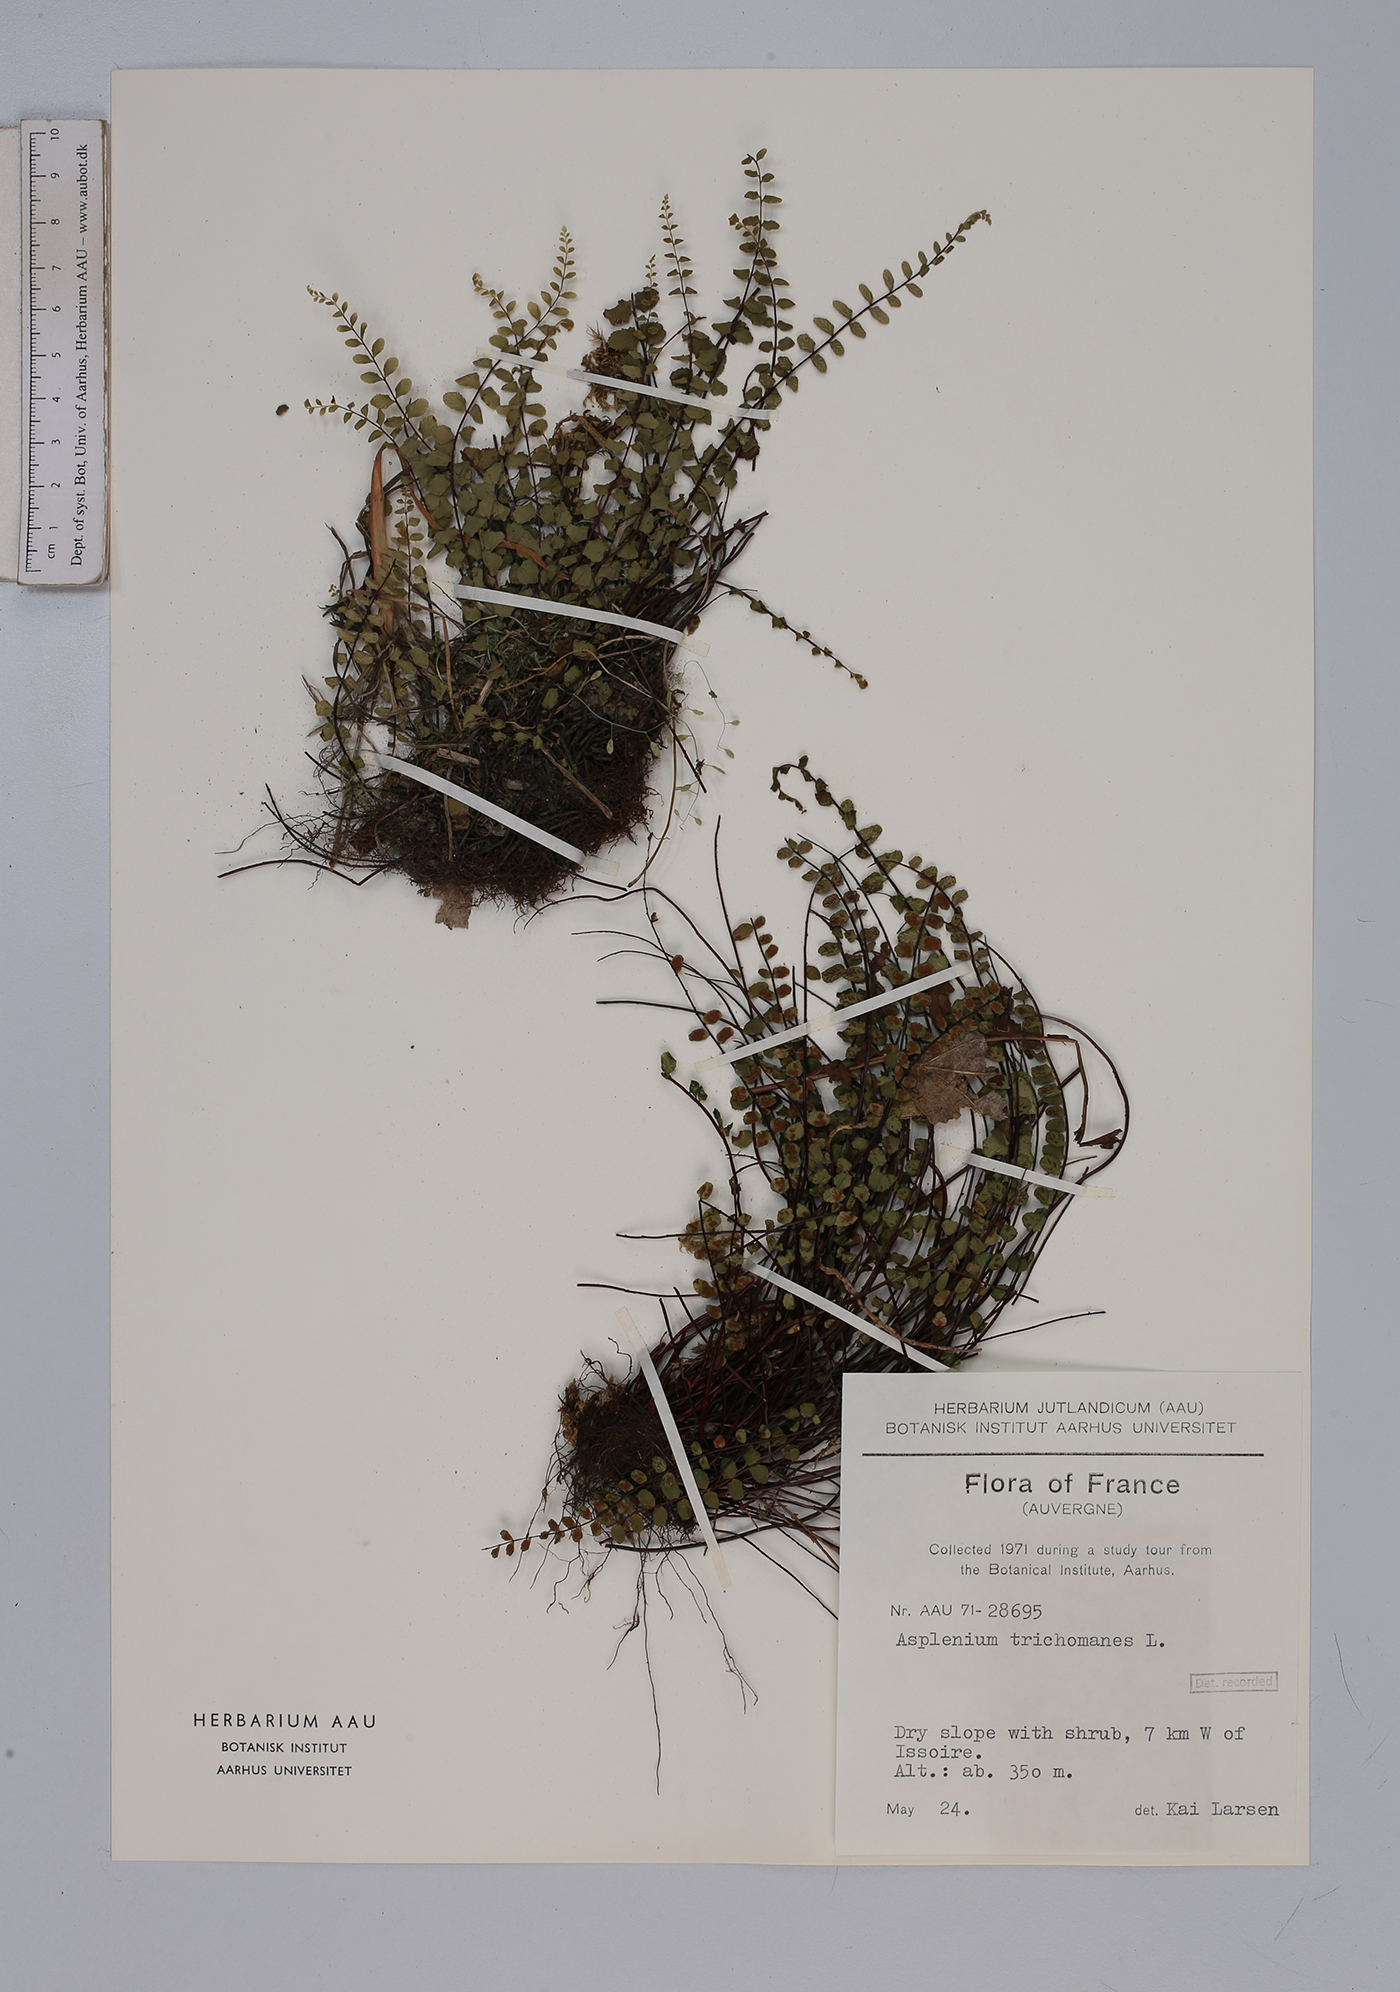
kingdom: Plantae
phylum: Tracheophyta
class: Polypodiopsida
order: Polypodiales
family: Aspleniaceae
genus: Asplenium
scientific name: Asplenium trichomanes
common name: Maidenhair spleenwort
